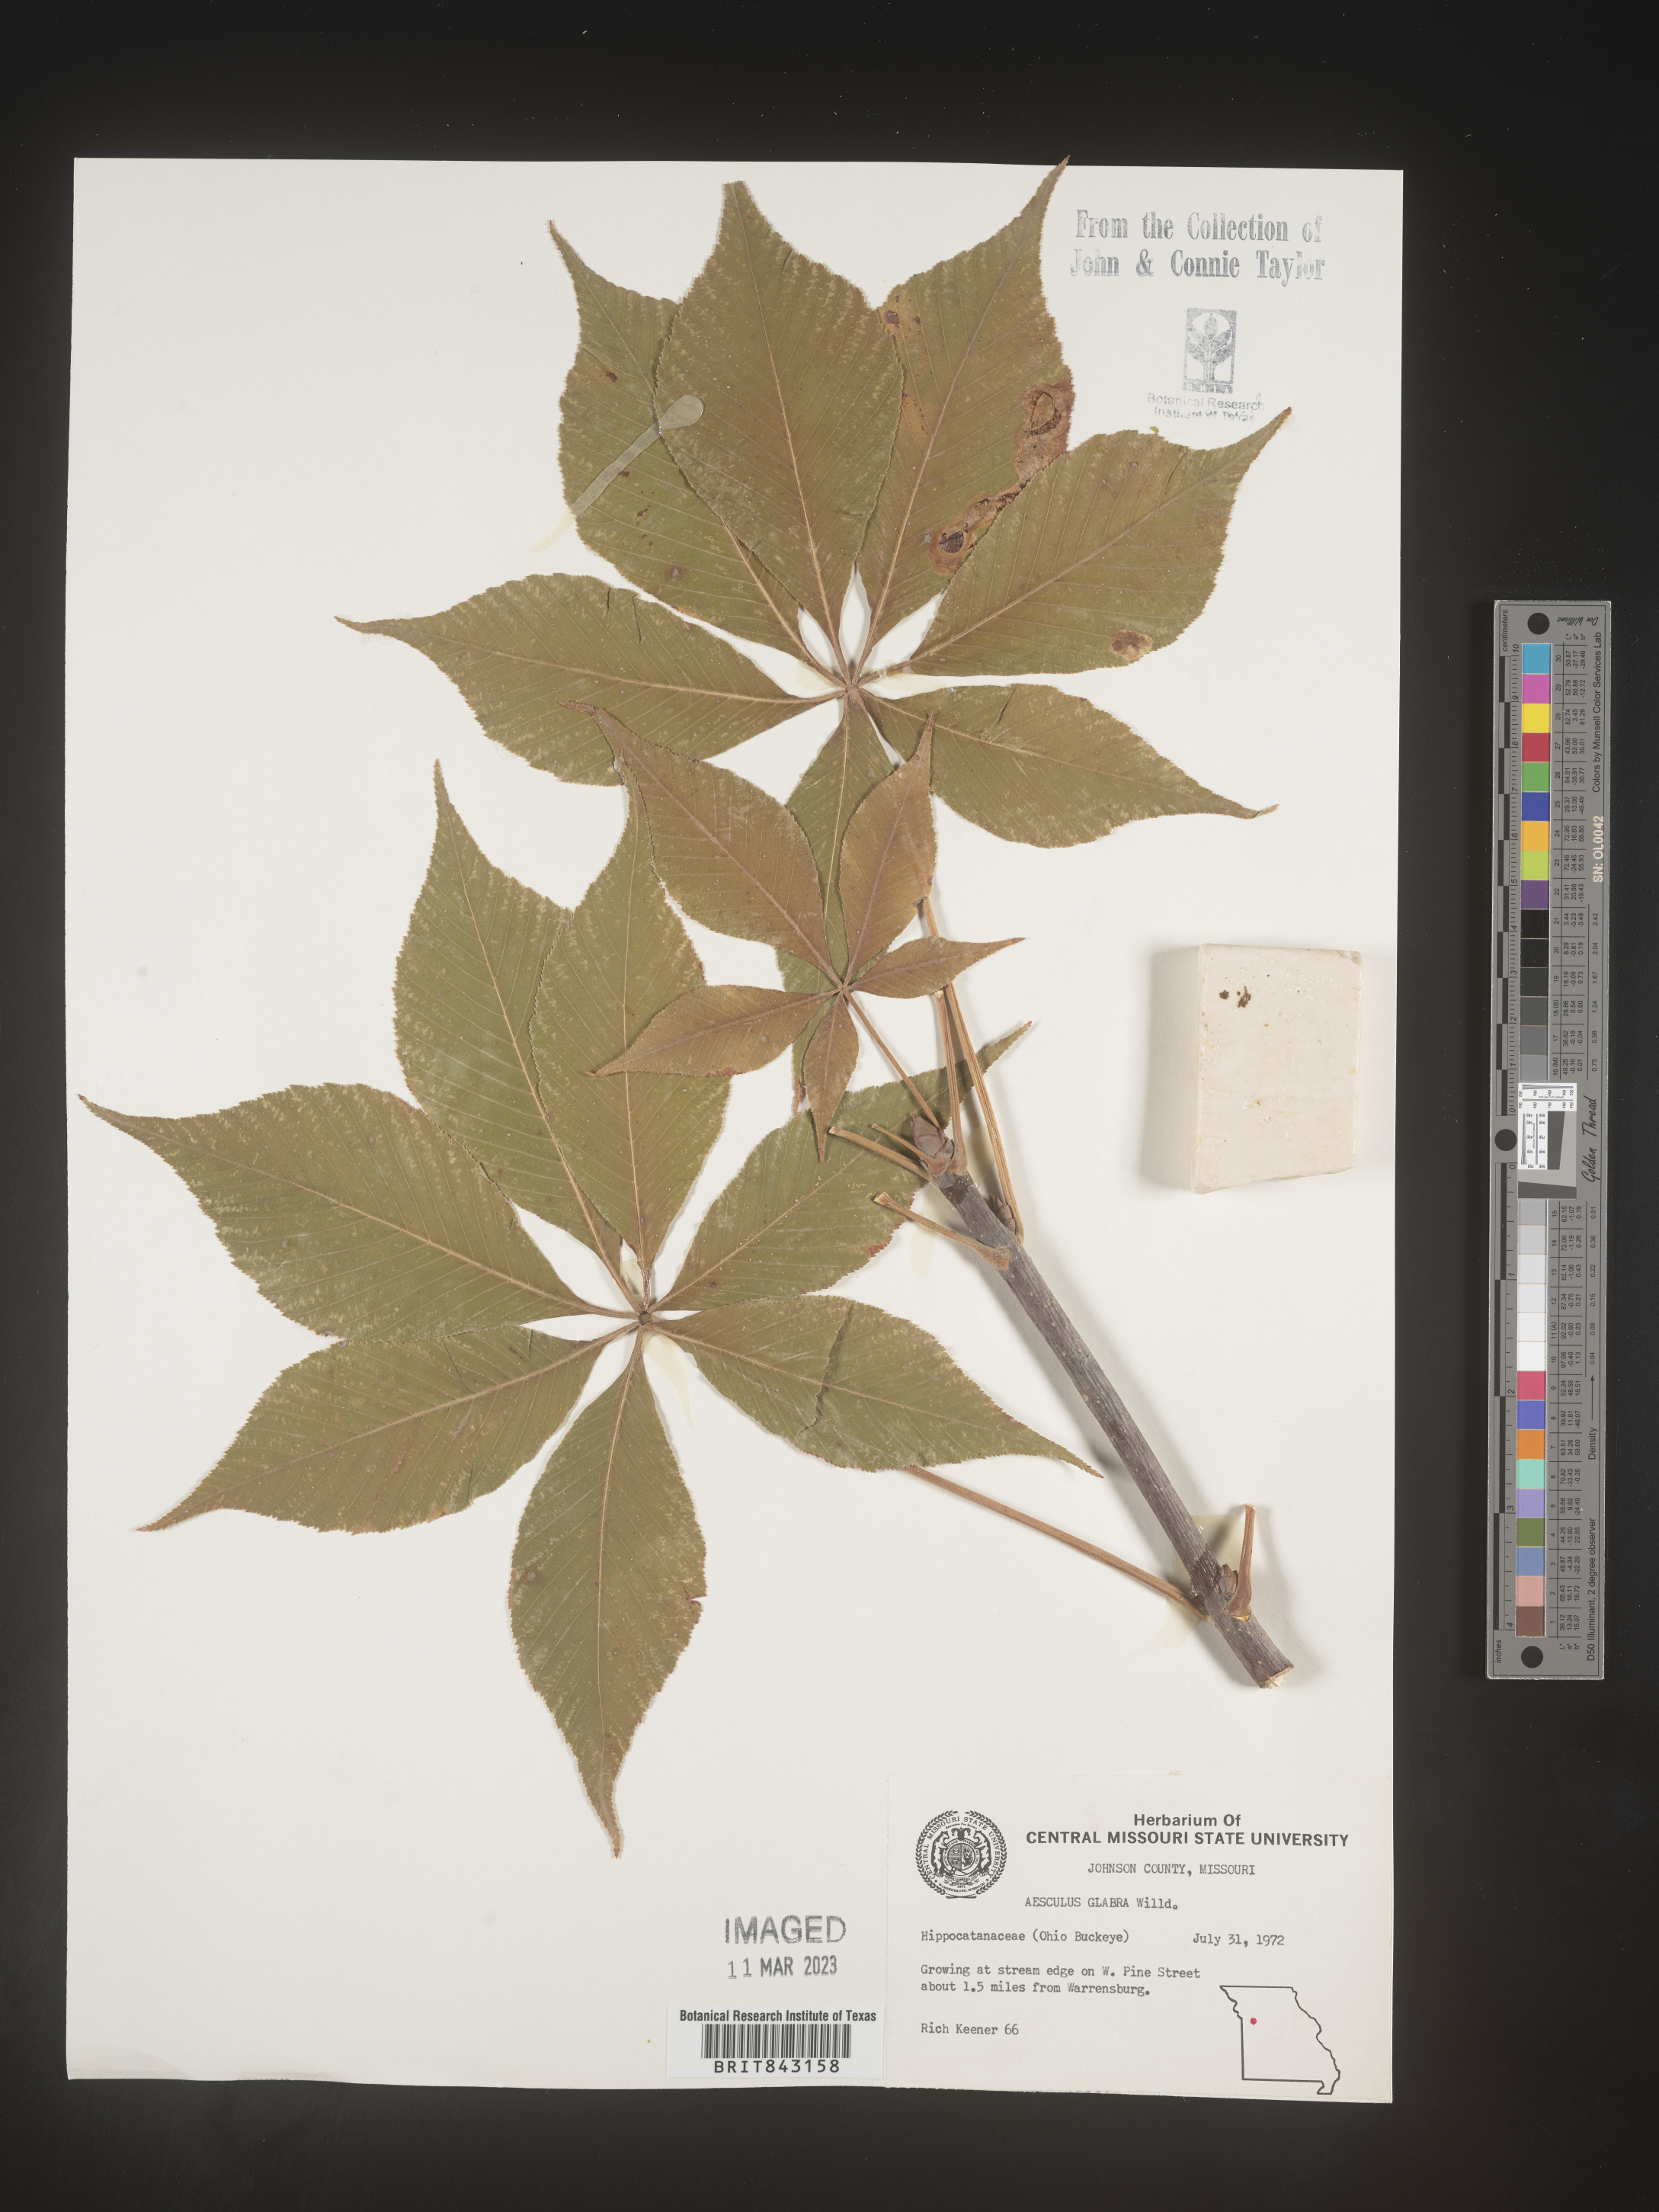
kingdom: Plantae
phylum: Tracheophyta
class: Magnoliopsida
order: Sapindales
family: Sapindaceae
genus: Aesculus
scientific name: Aesculus glabra
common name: Ohio buckeye
